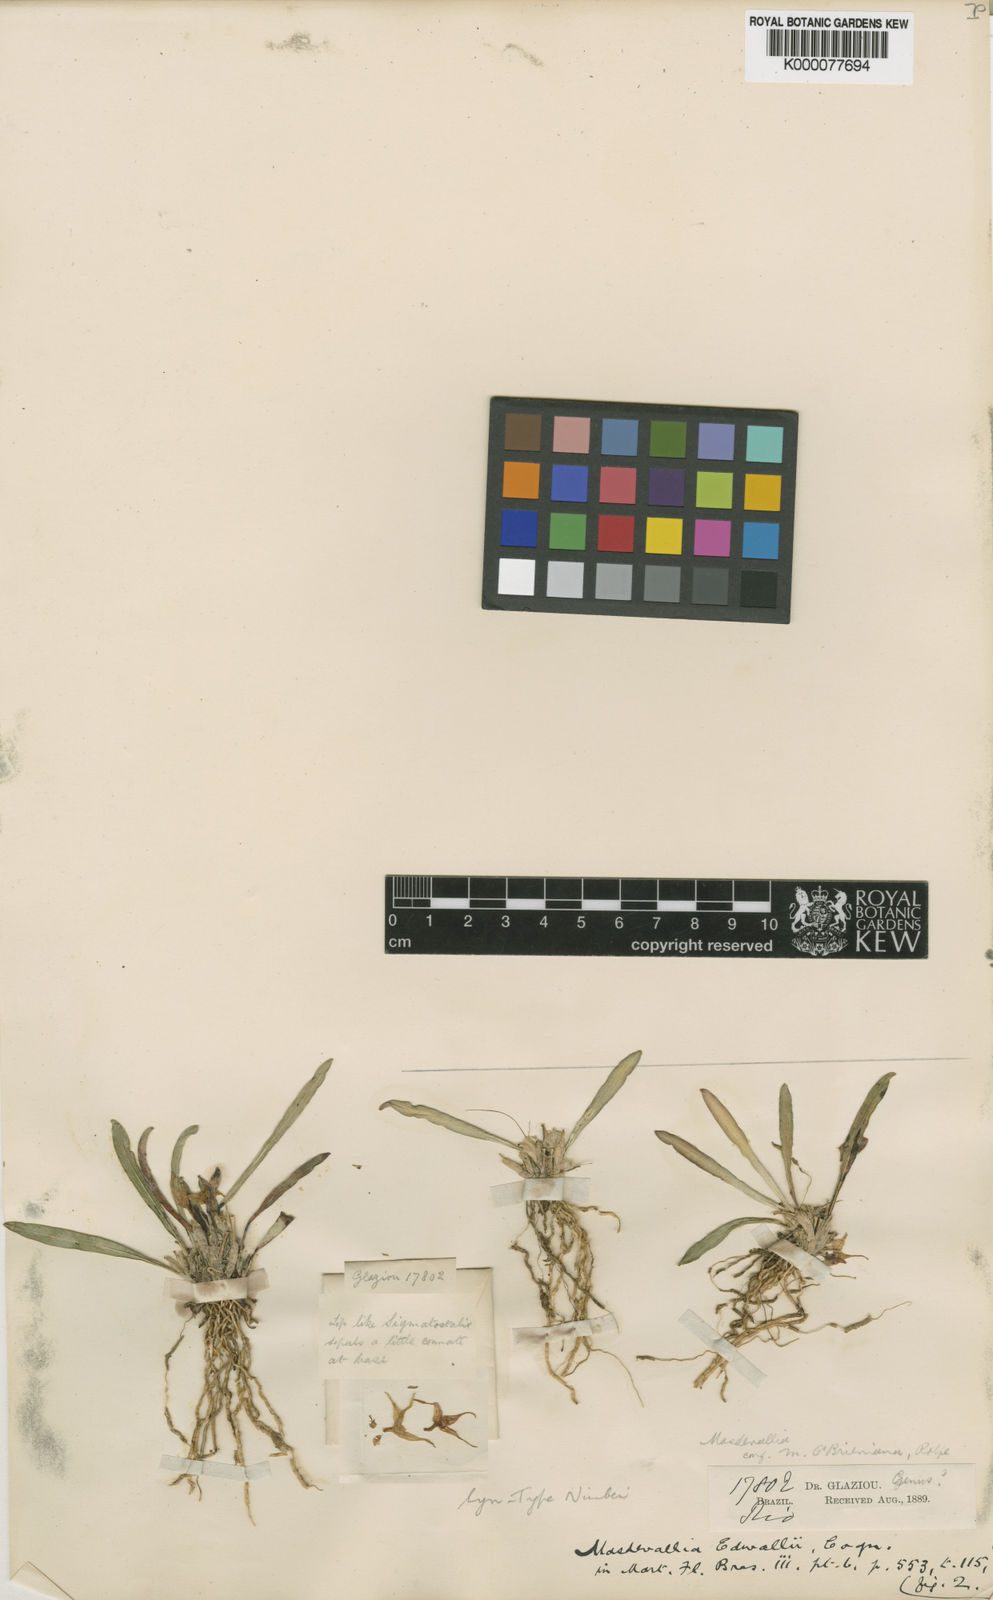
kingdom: Plantae
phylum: Tracheophyta
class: Liliopsida
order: Asparagales
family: Orchidaceae
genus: Dryadella
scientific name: Dryadella edwallii
